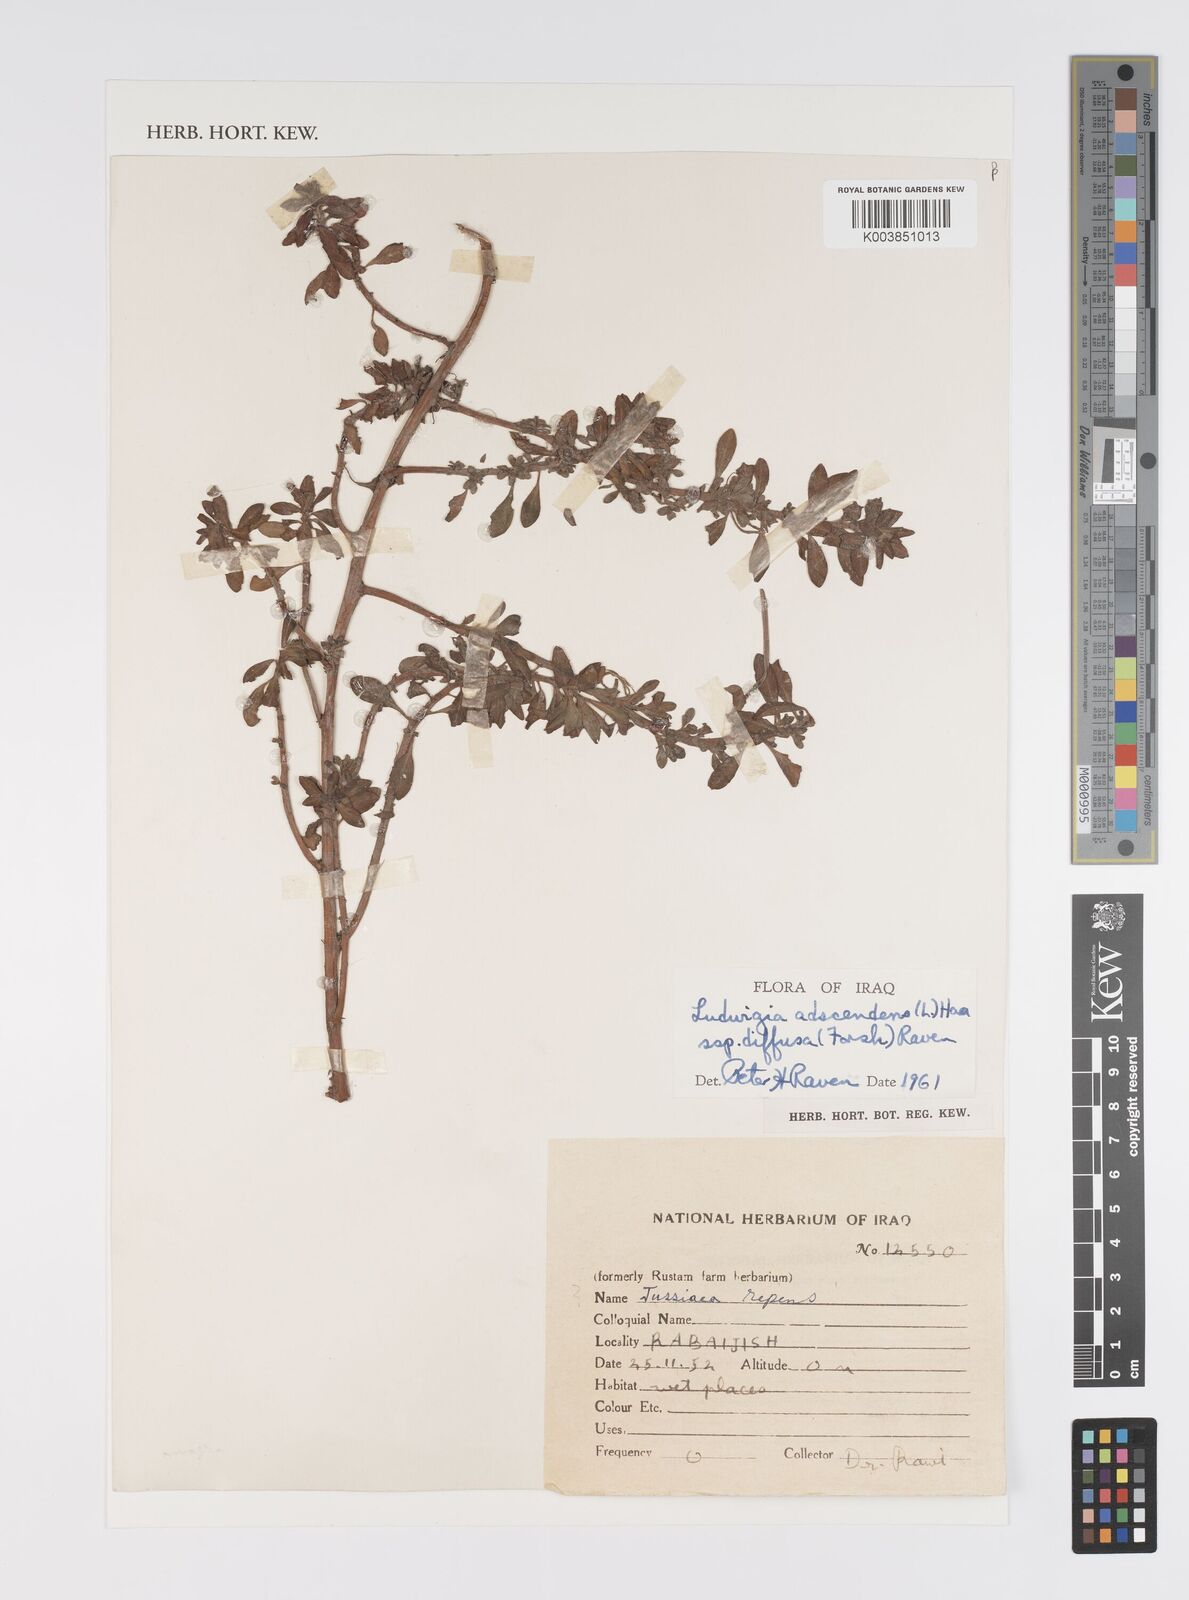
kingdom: Plantae
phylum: Tracheophyta
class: Magnoliopsida
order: Myrtales
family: Onagraceae
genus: Ludwigia
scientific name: Ludwigia adscendens
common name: Creeping water primrose
